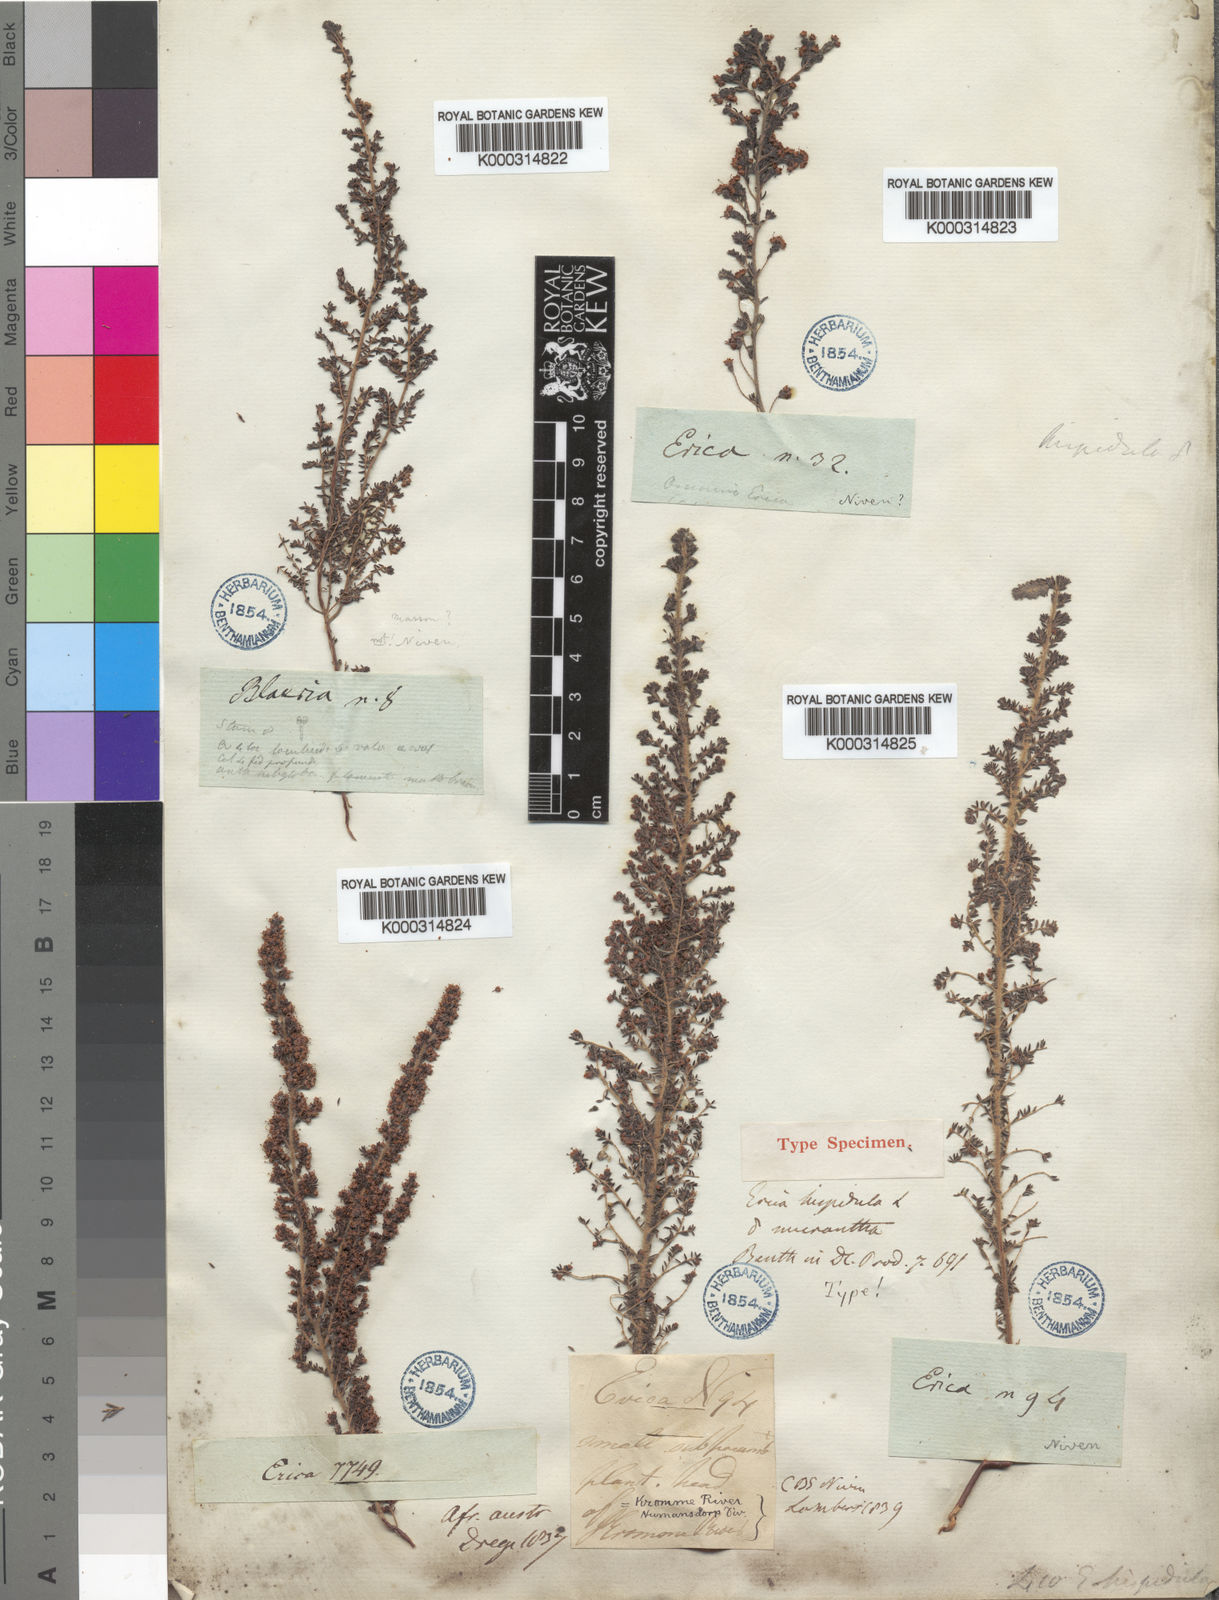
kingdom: Plantae
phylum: Tracheophyta
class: Magnoliopsida
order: Ericales
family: Ericaceae
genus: Erica
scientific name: Erica hispidula
